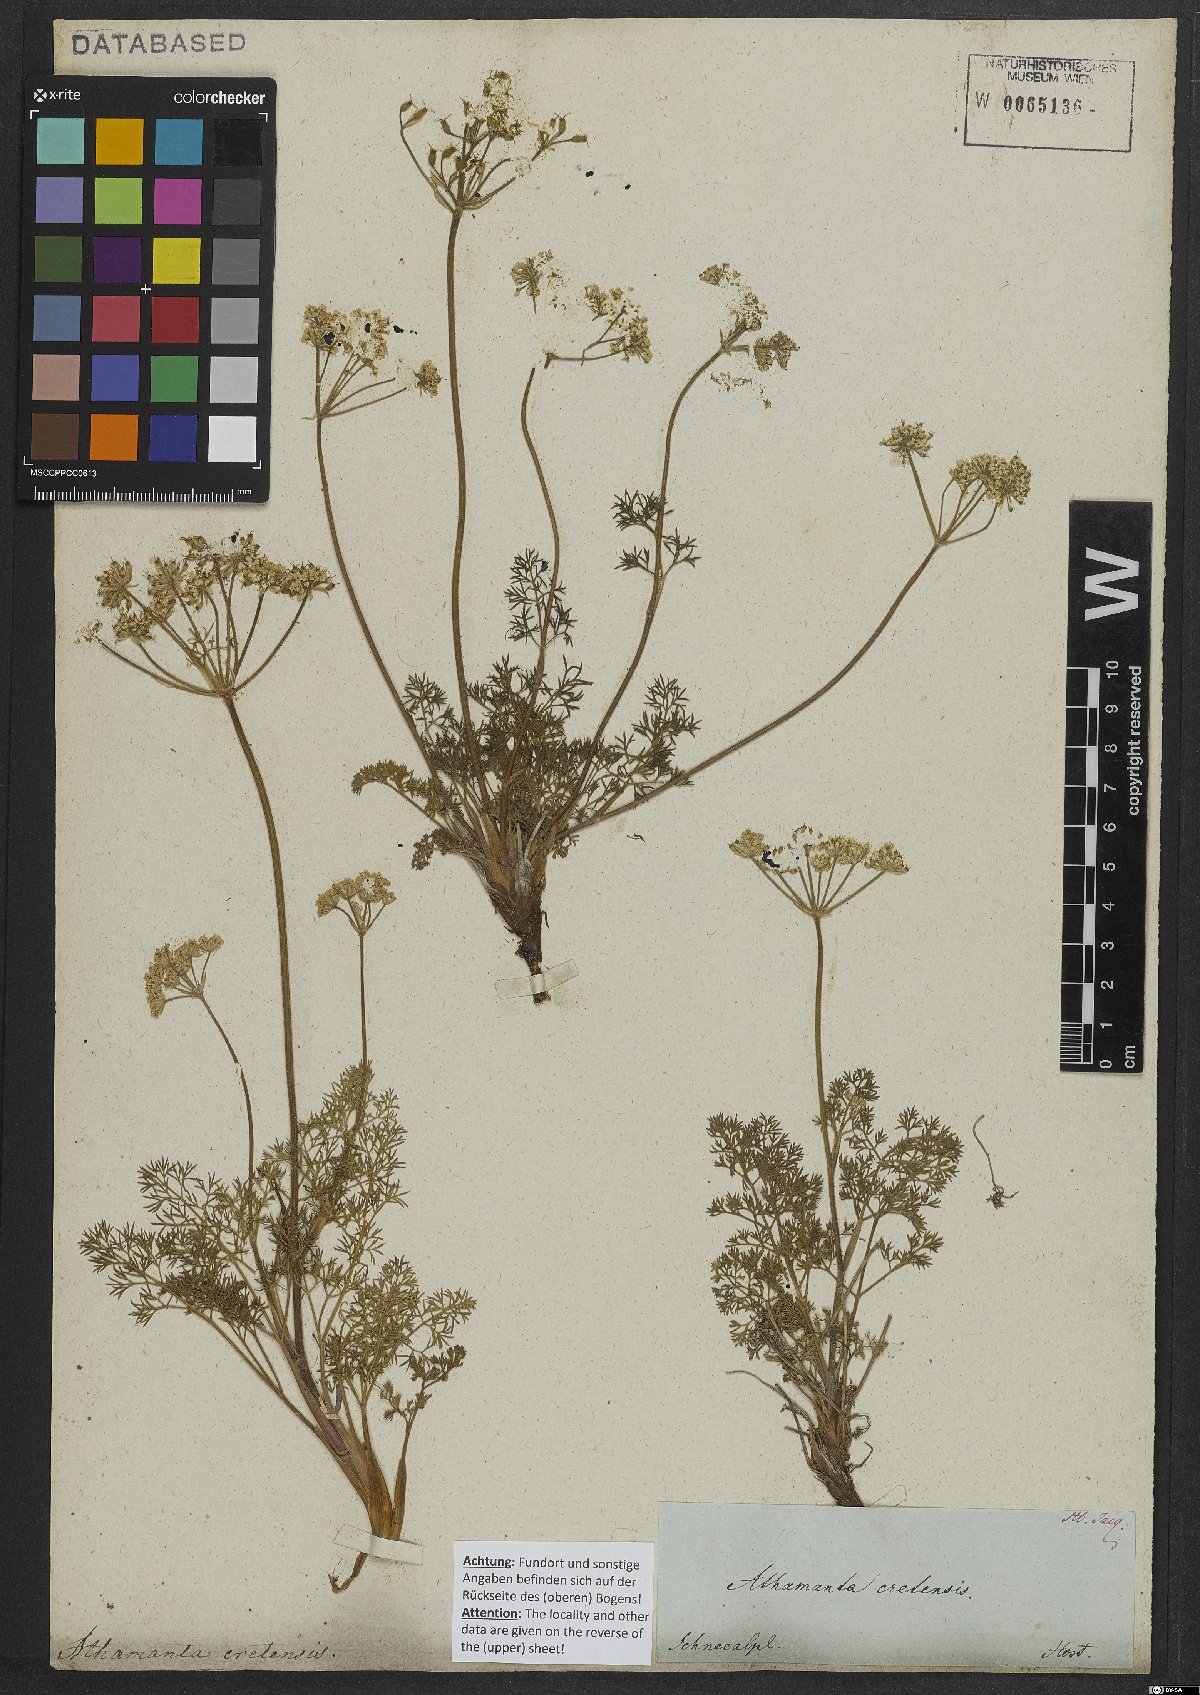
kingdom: Plantae
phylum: Tracheophyta
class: Magnoliopsida
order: Apiales
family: Apiaceae
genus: Athamanta
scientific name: Athamanta cretensis
